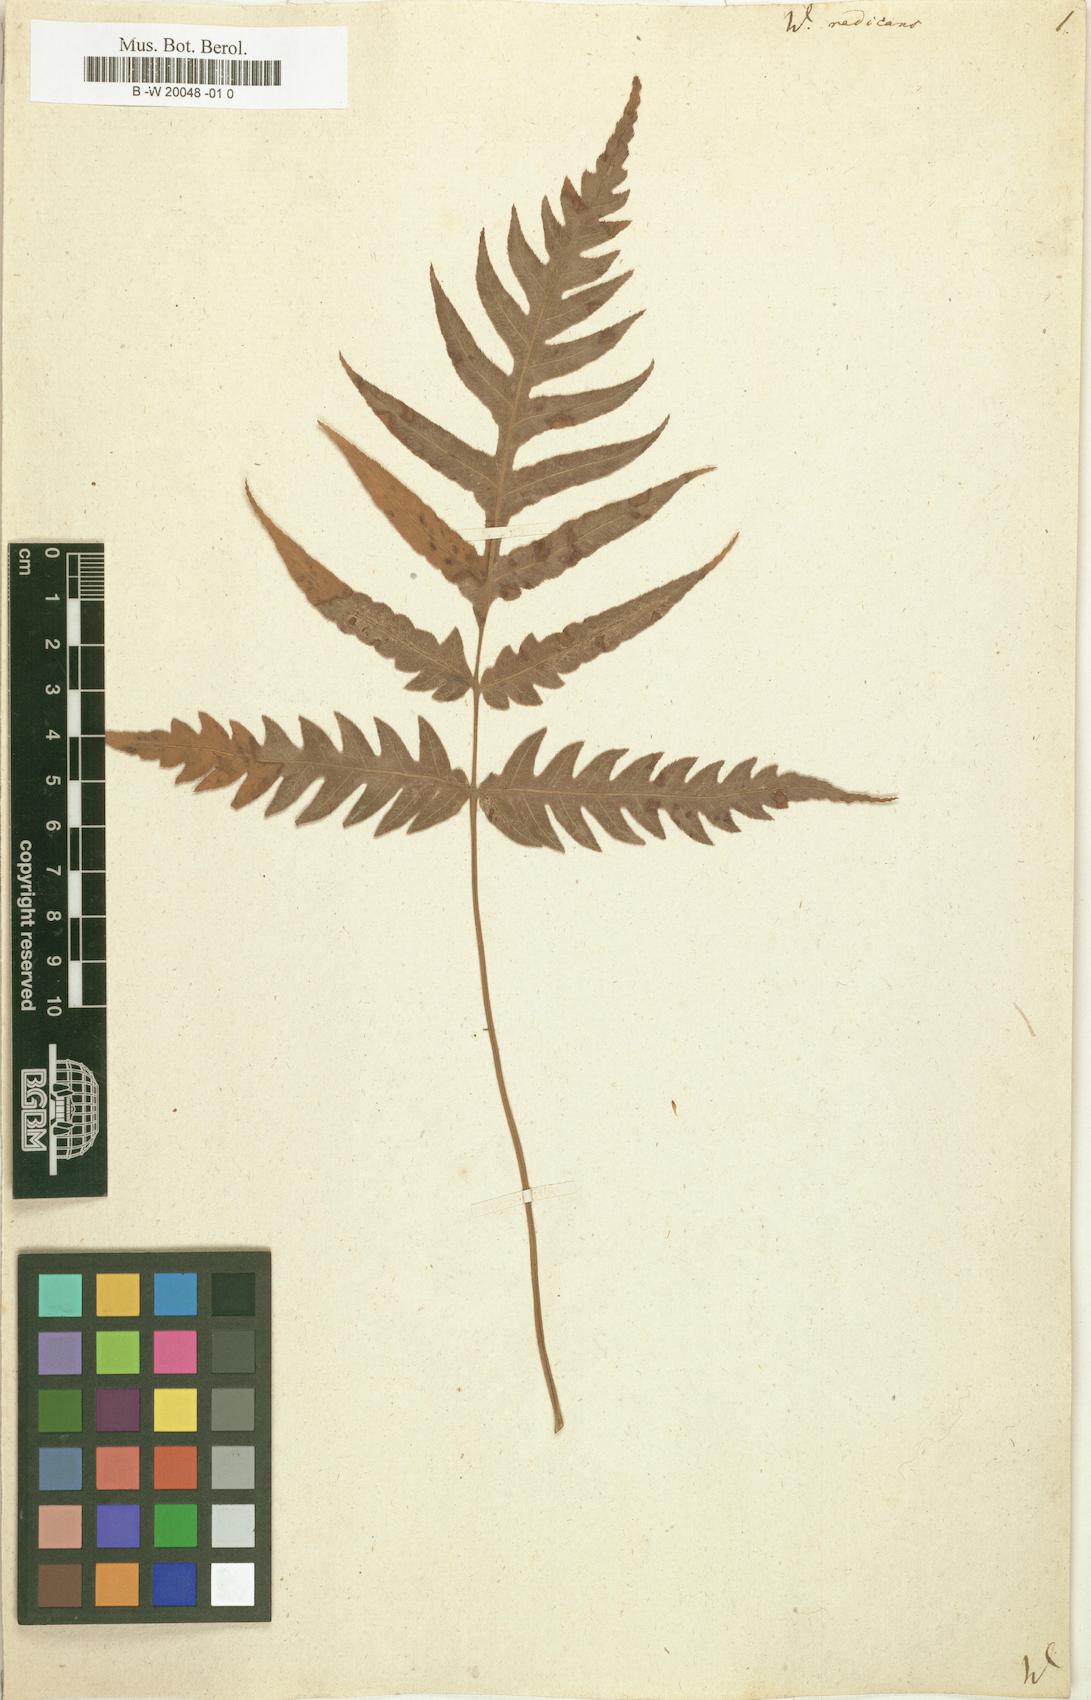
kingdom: Plantae
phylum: Tracheophyta
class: Polypodiopsida
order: Polypodiales
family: Blechnaceae
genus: Woodwardia
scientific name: Woodwardia radicans
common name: Rooting chainfern
